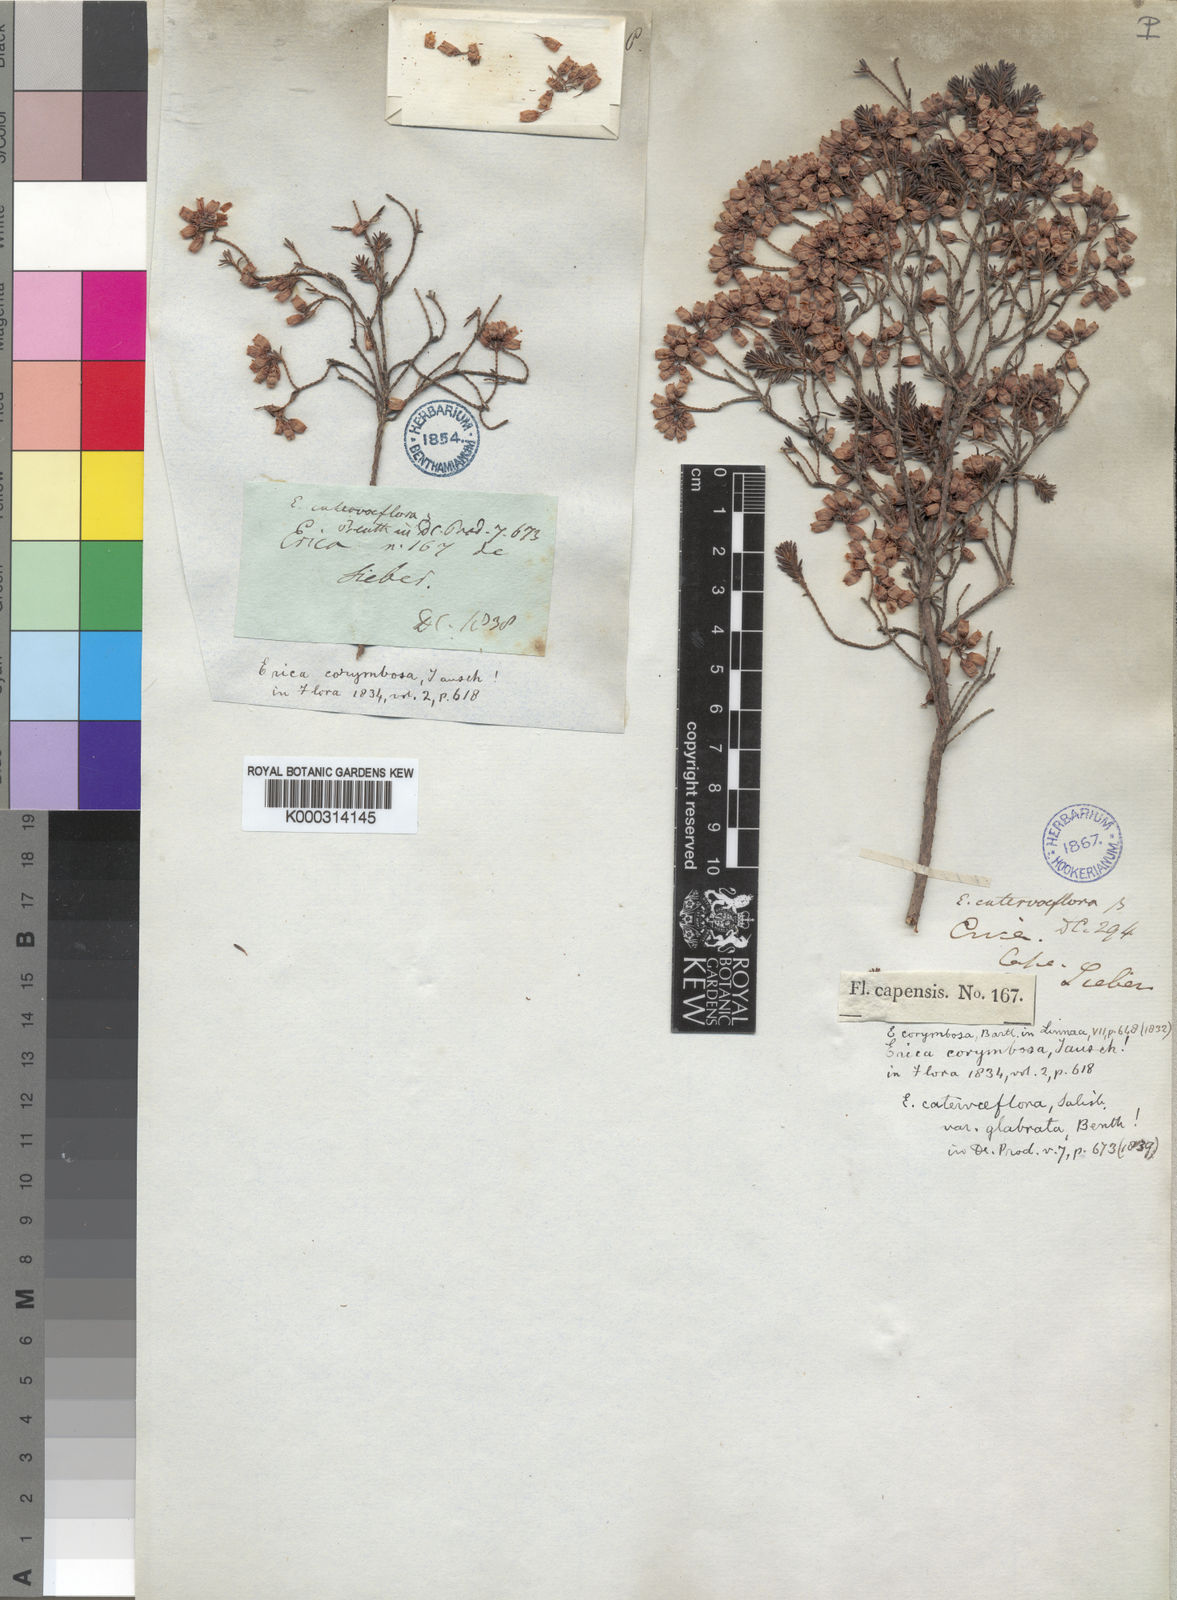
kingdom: Plantae
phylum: Tracheophyta
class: Magnoliopsida
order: Ericales
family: Ericaceae
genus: Erica
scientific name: Erica caterviflora
